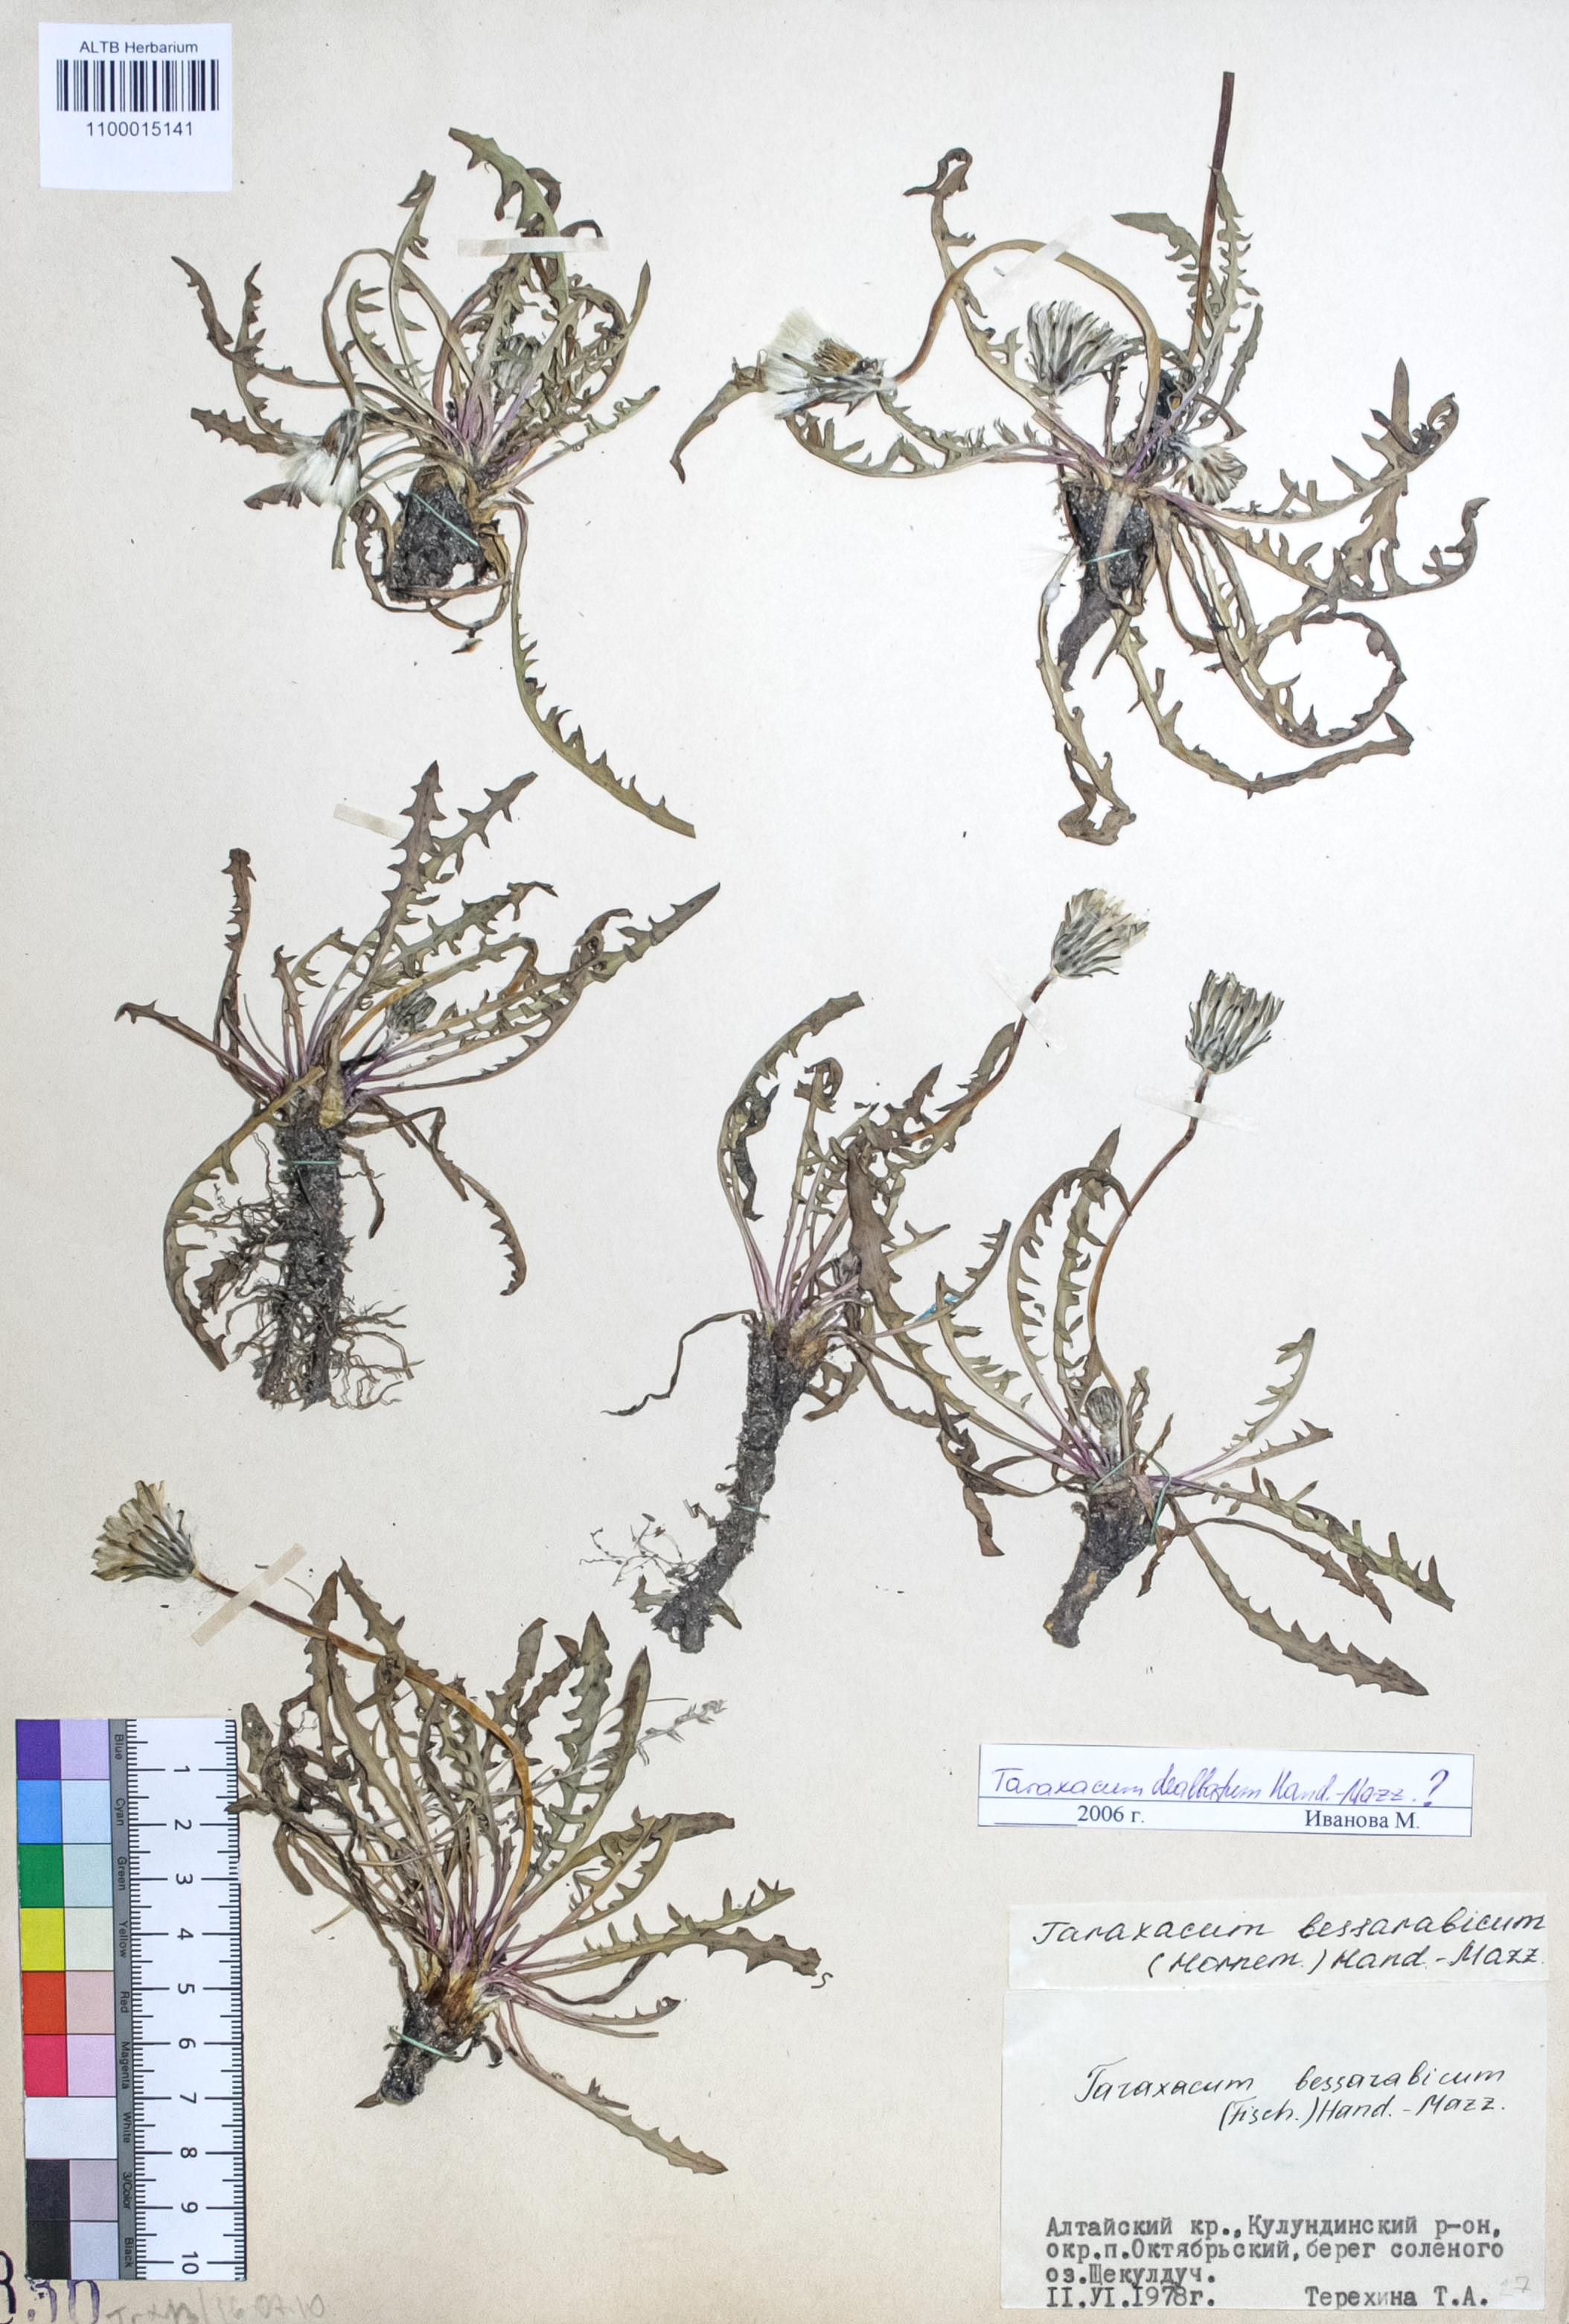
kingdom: Plantae
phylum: Tracheophyta
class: Magnoliopsida
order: Asterales
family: Asteraceae
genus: Taraxacum
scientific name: Taraxacum bessarabicum
